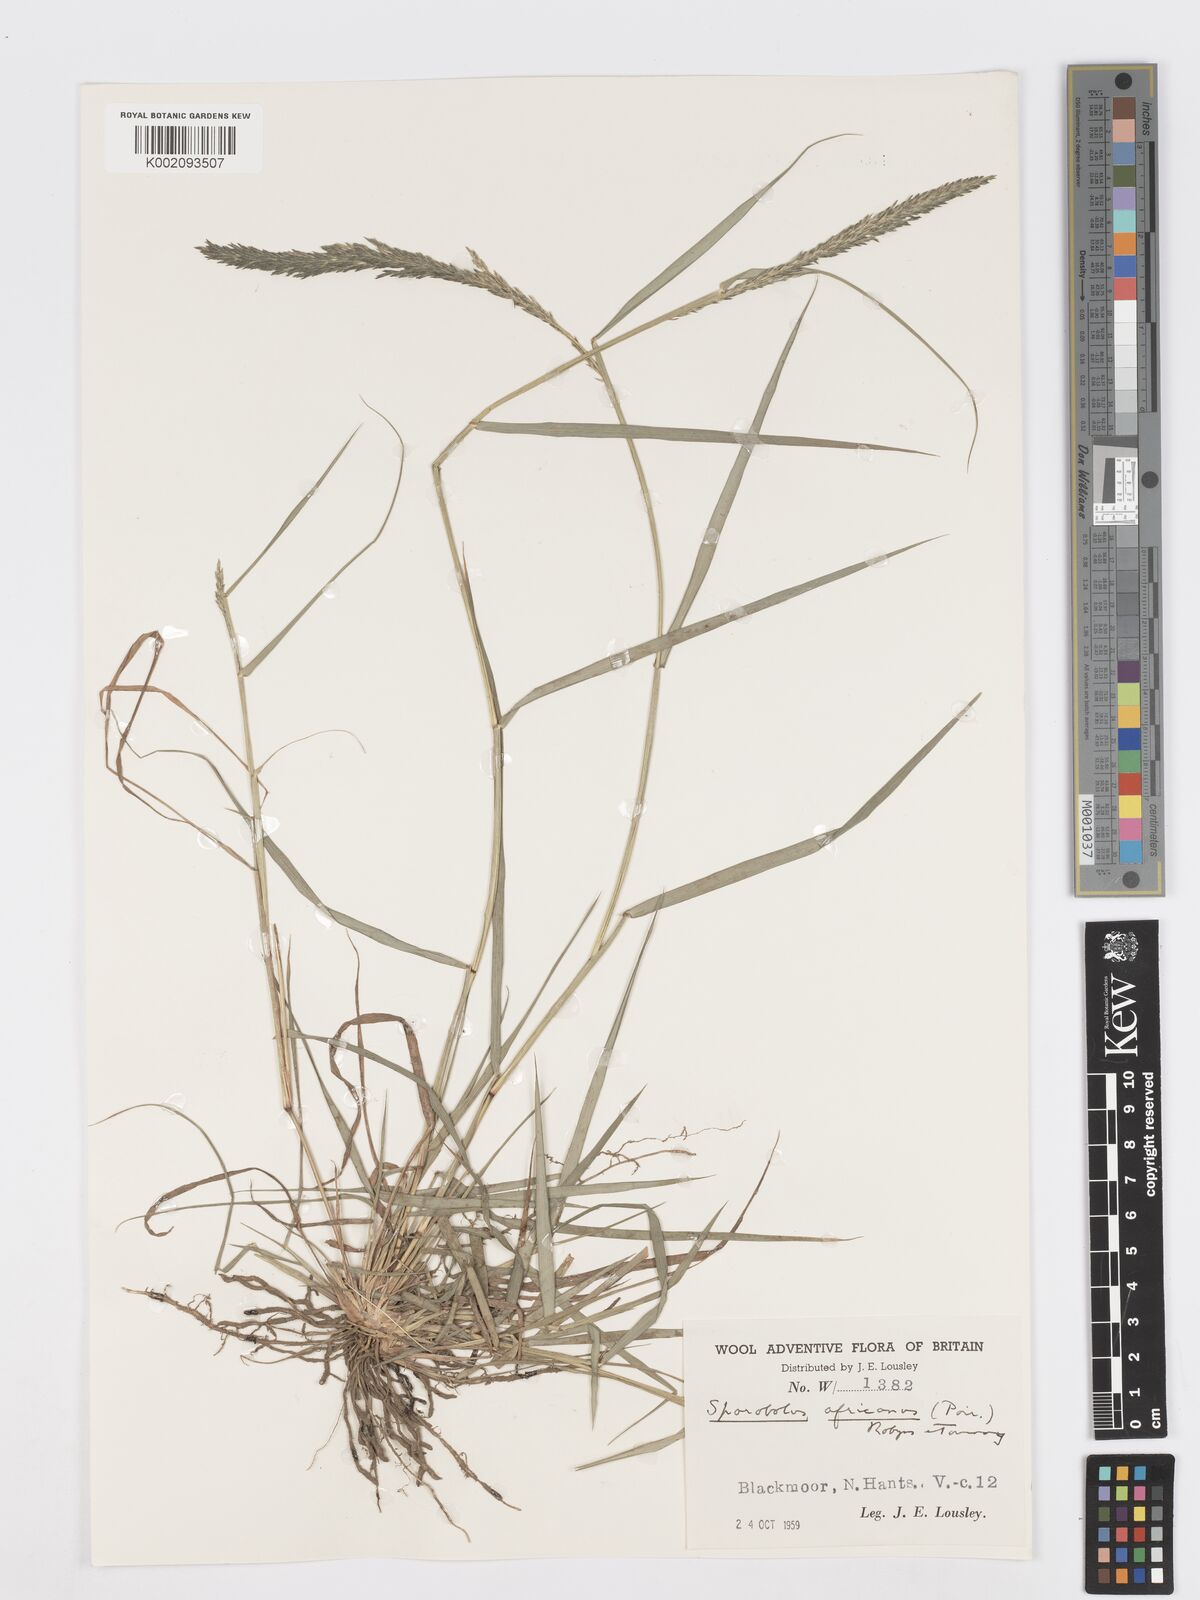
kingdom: Plantae
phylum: Tracheophyta
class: Liliopsida
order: Poales
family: Poaceae
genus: Sporobolus
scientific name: Sporobolus africanus
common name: African dropseed
